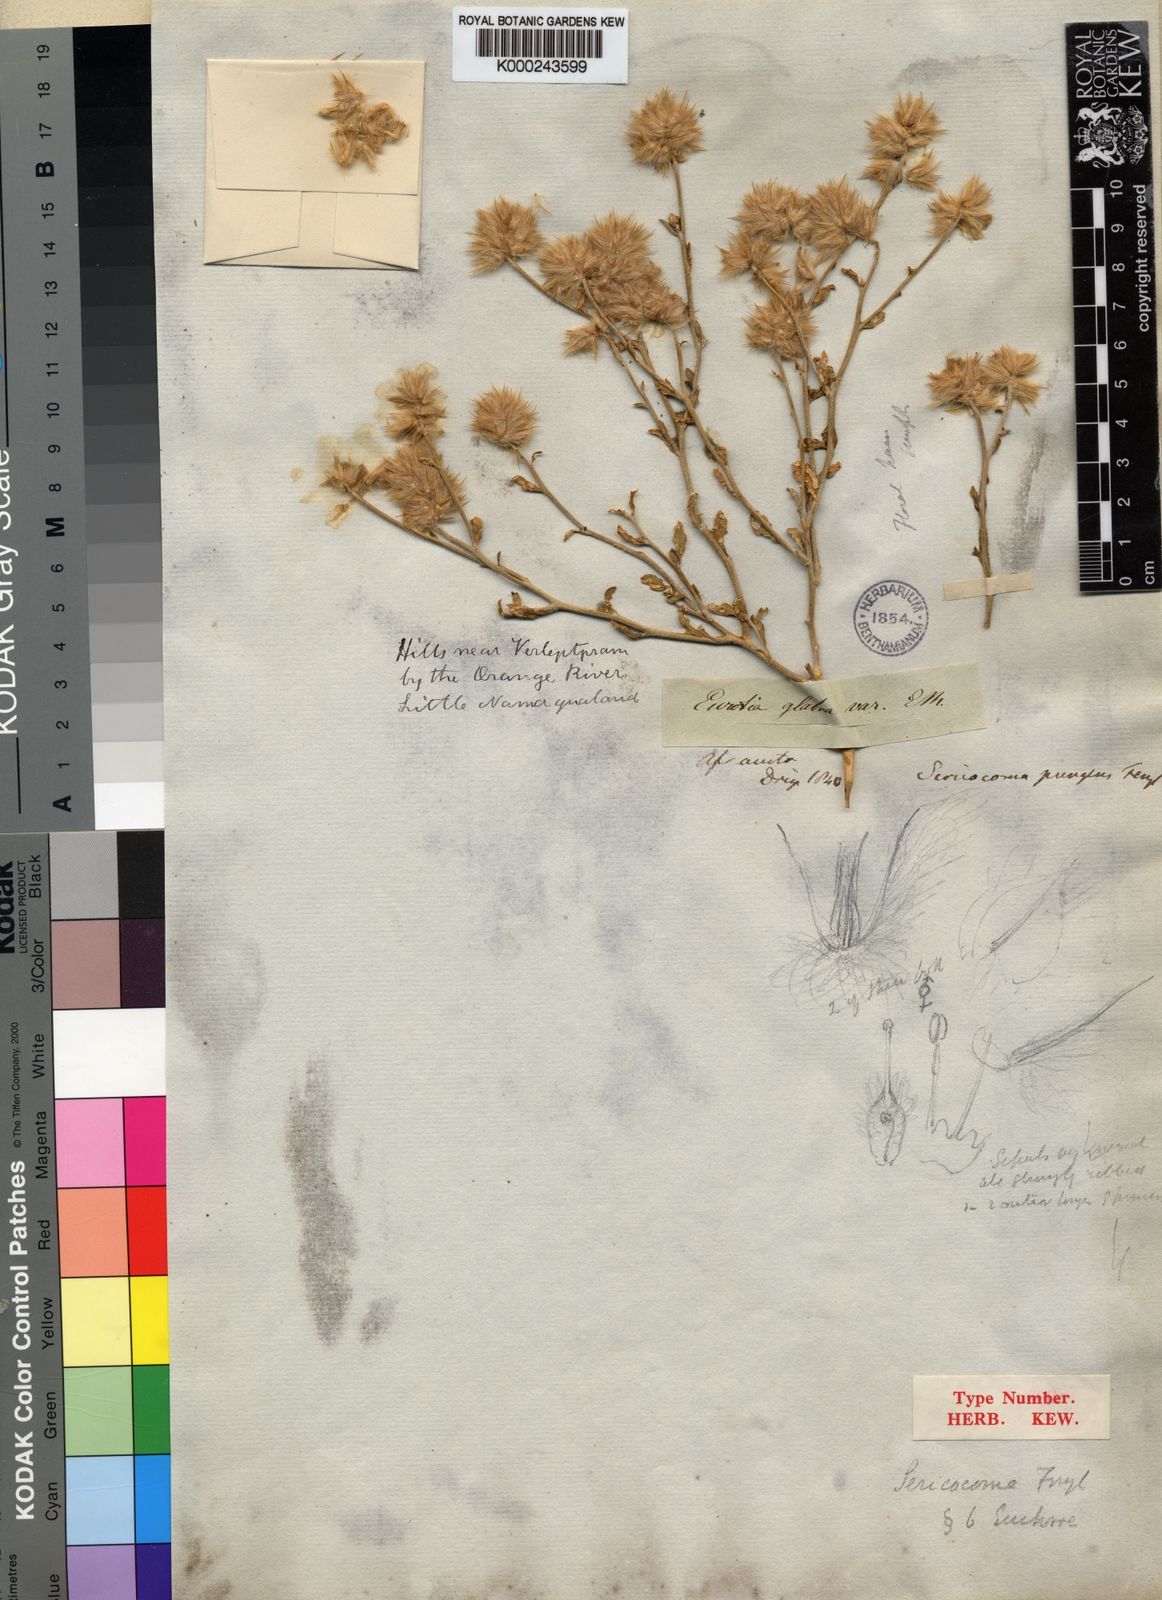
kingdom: Plantae
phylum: Tracheophyta
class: Magnoliopsida
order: Caryophyllales
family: Amaranthaceae
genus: Sericocoma
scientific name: Sericocoma pungens
